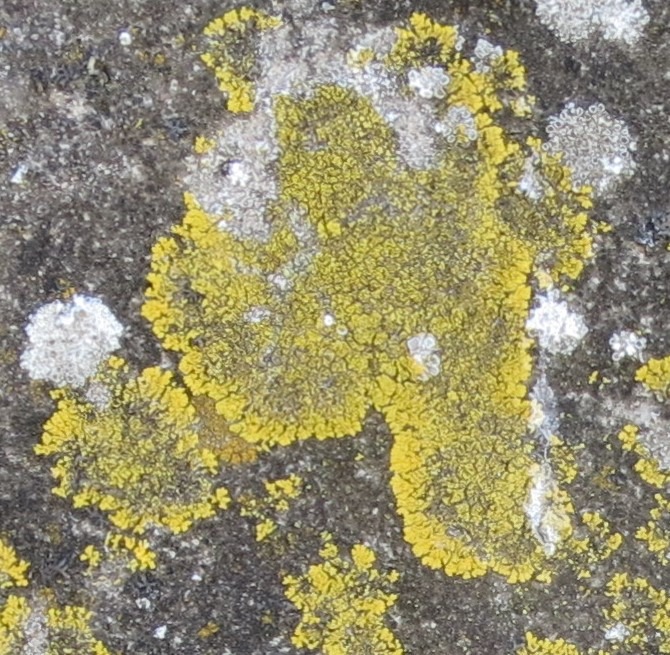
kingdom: Fungi
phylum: Ascomycota
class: Candelariomycetes
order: Candelariales
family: Candelariaceae
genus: Candelariella
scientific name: Candelariella medians
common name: Roset-æggeblommelav
